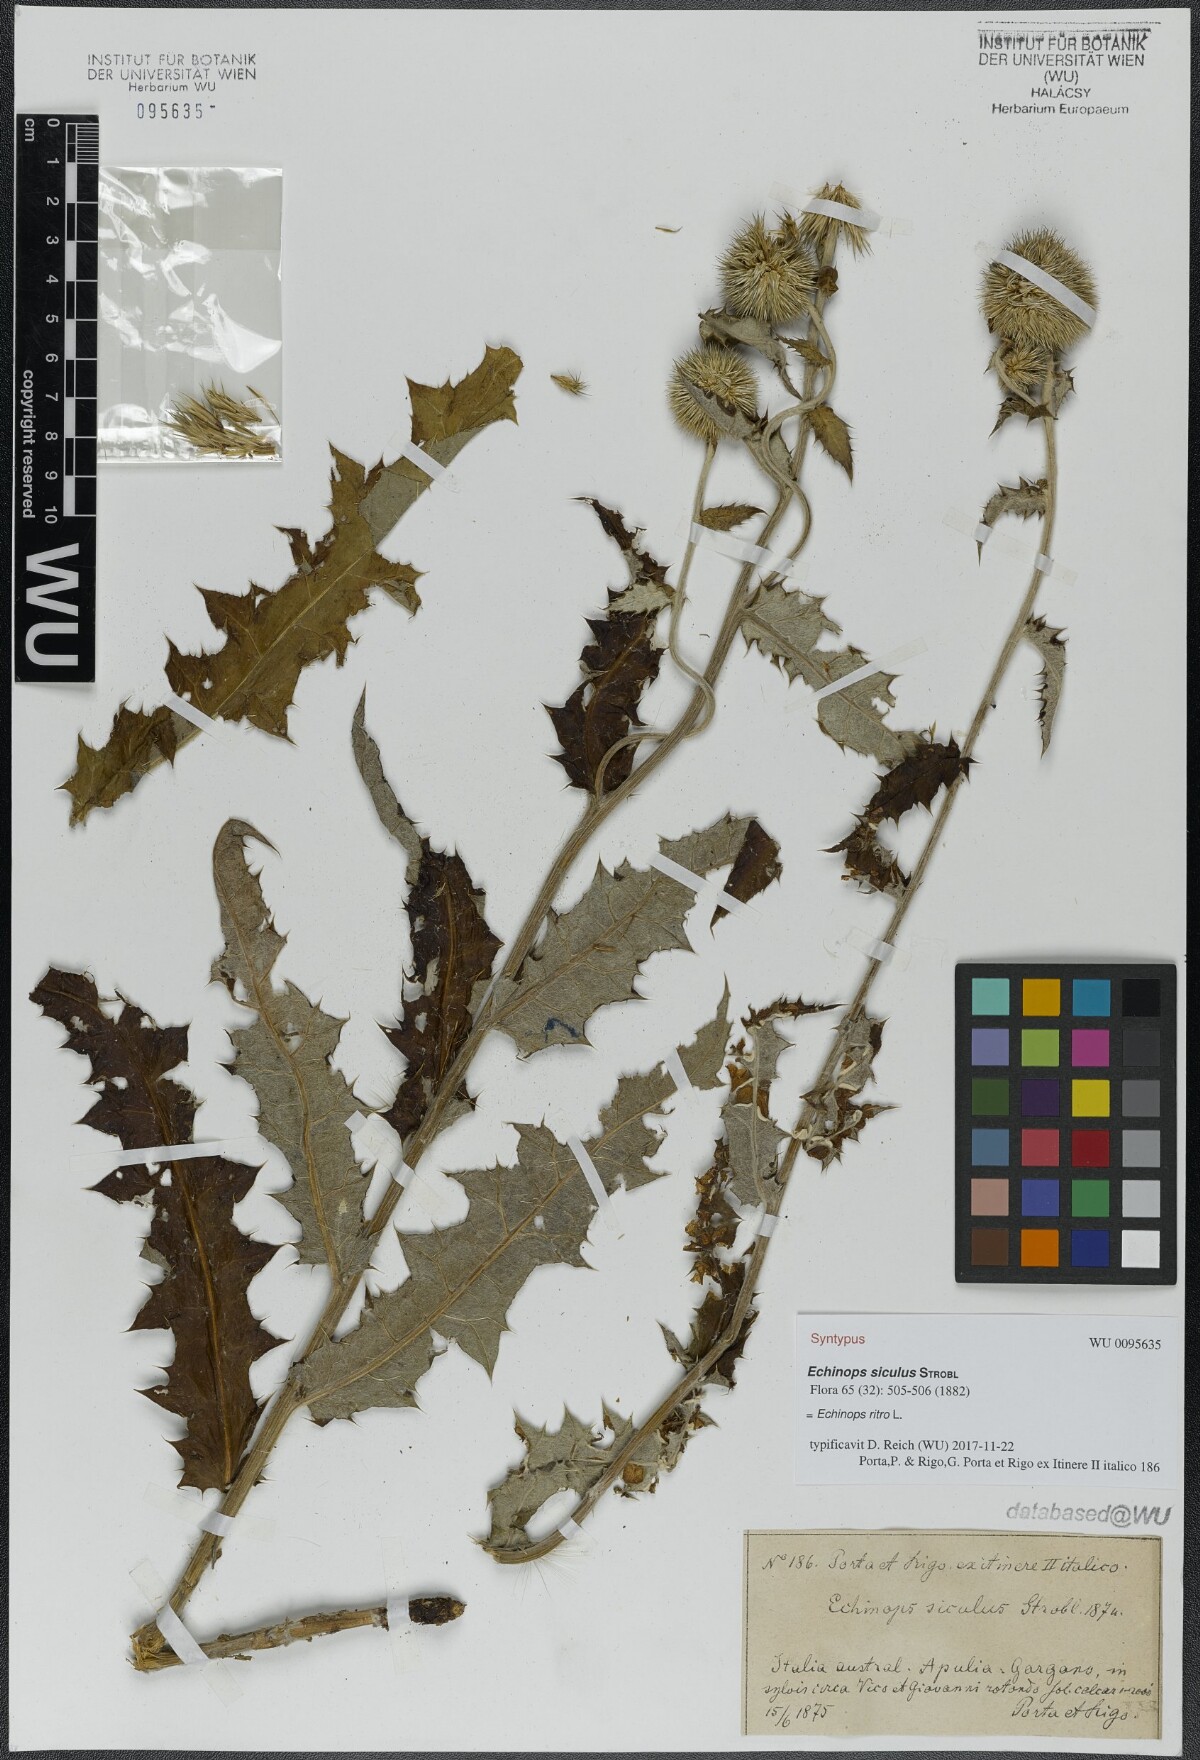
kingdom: Plantae
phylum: Tracheophyta
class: Magnoliopsida
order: Asterales
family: Asteraceae
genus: Echinops
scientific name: Echinops ritro
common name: Globe thistle
